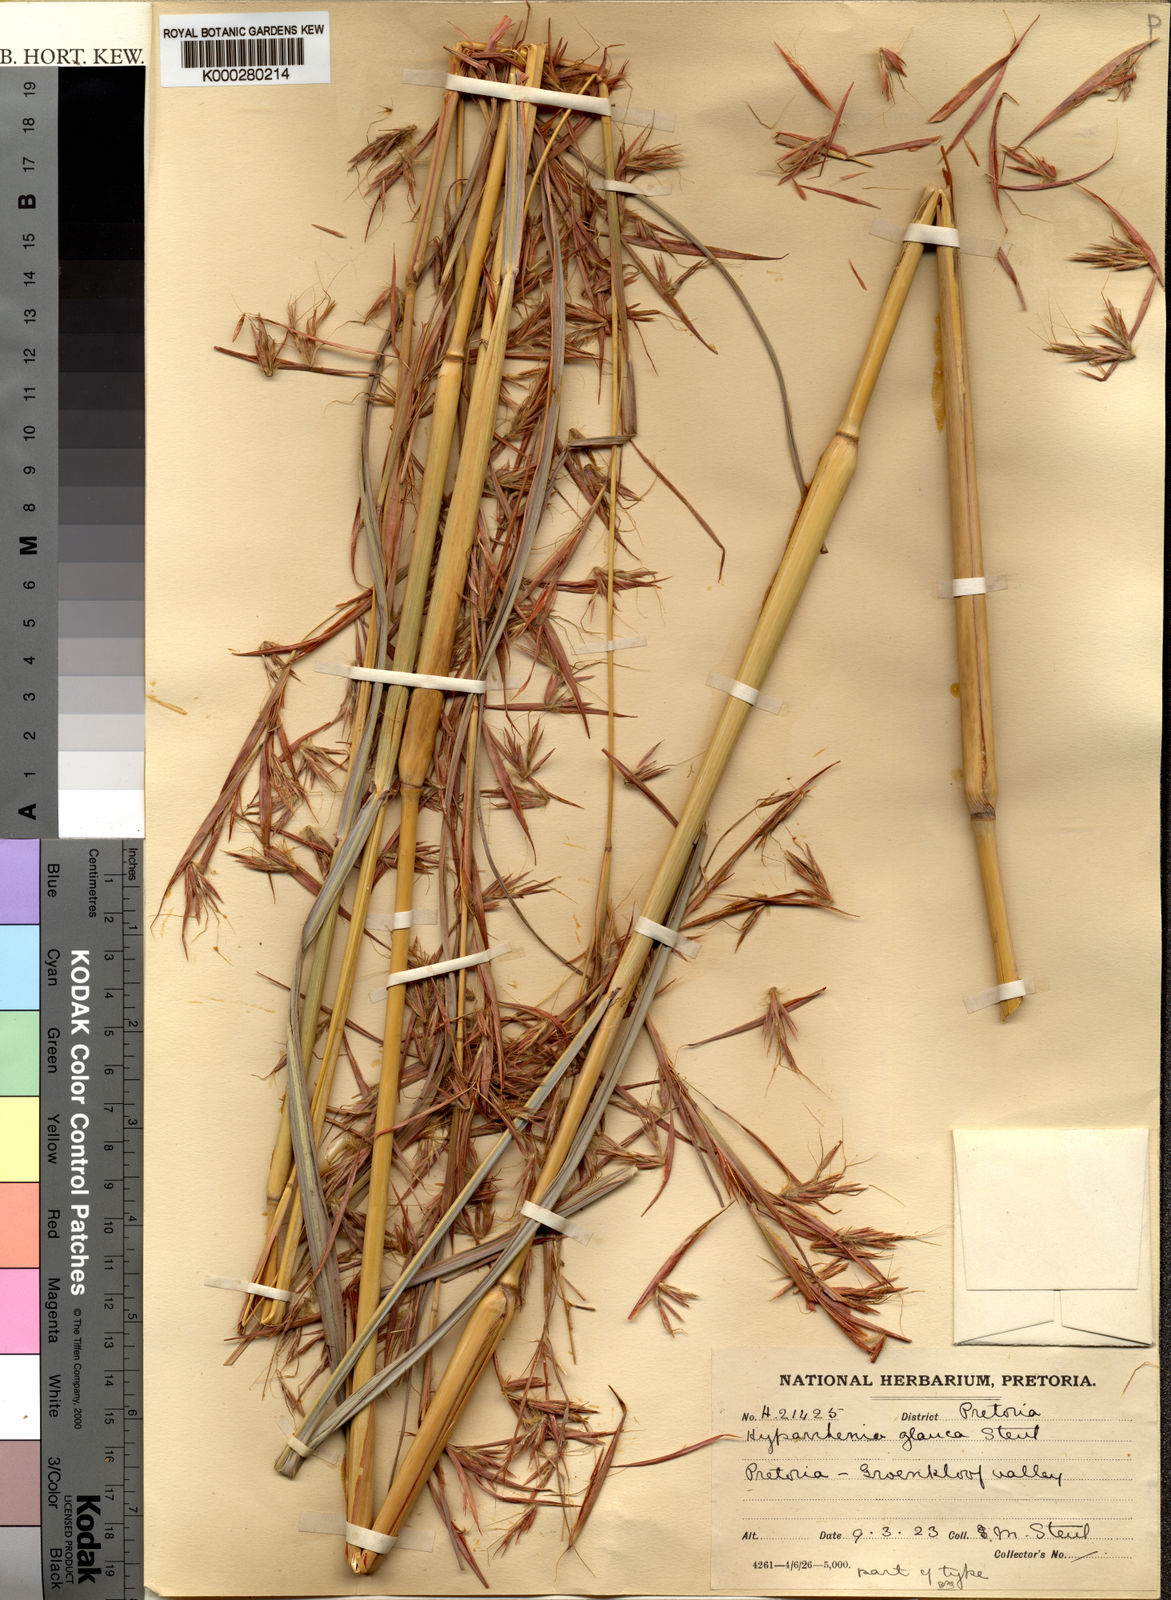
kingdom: Plantae
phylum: Tracheophyta
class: Liliopsida
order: Poales
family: Poaceae
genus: Hyparrhenia
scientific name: Hyparrhenia tamba
